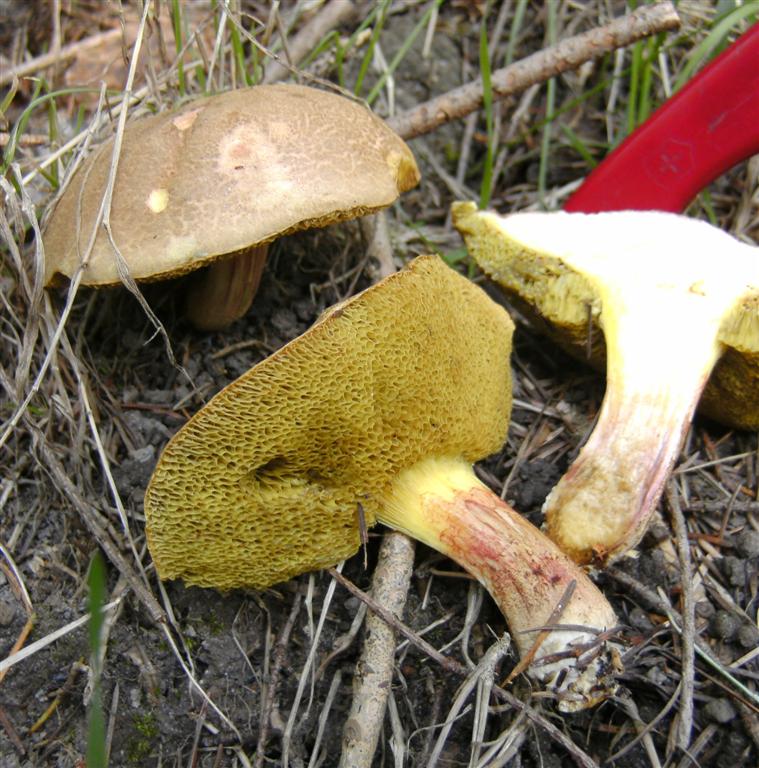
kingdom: Fungi
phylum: Basidiomycota
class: Agaricomycetes
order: Boletales
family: Boletaceae
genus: Xerocomellus
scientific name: Xerocomellus chrysenteron
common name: rødsprukken rørhat
